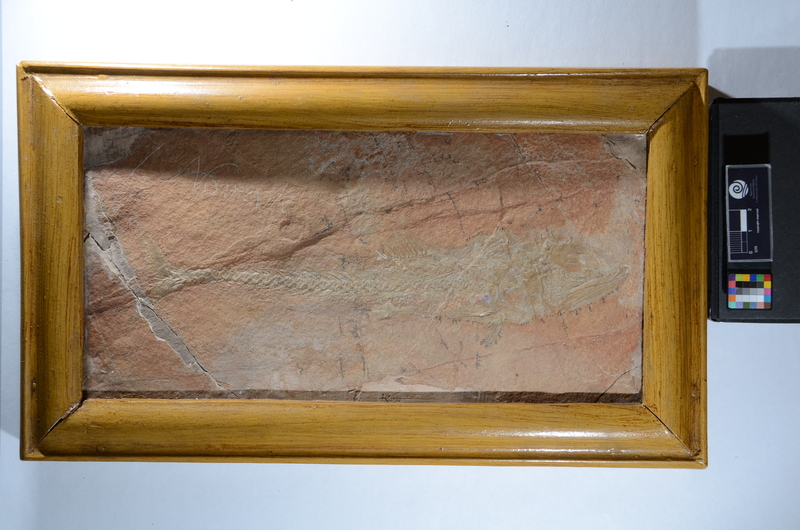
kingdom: Animalia
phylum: Chordata
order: Aulopiformes
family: Halecidae
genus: Halec
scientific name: Halec Elopopsis haueri
